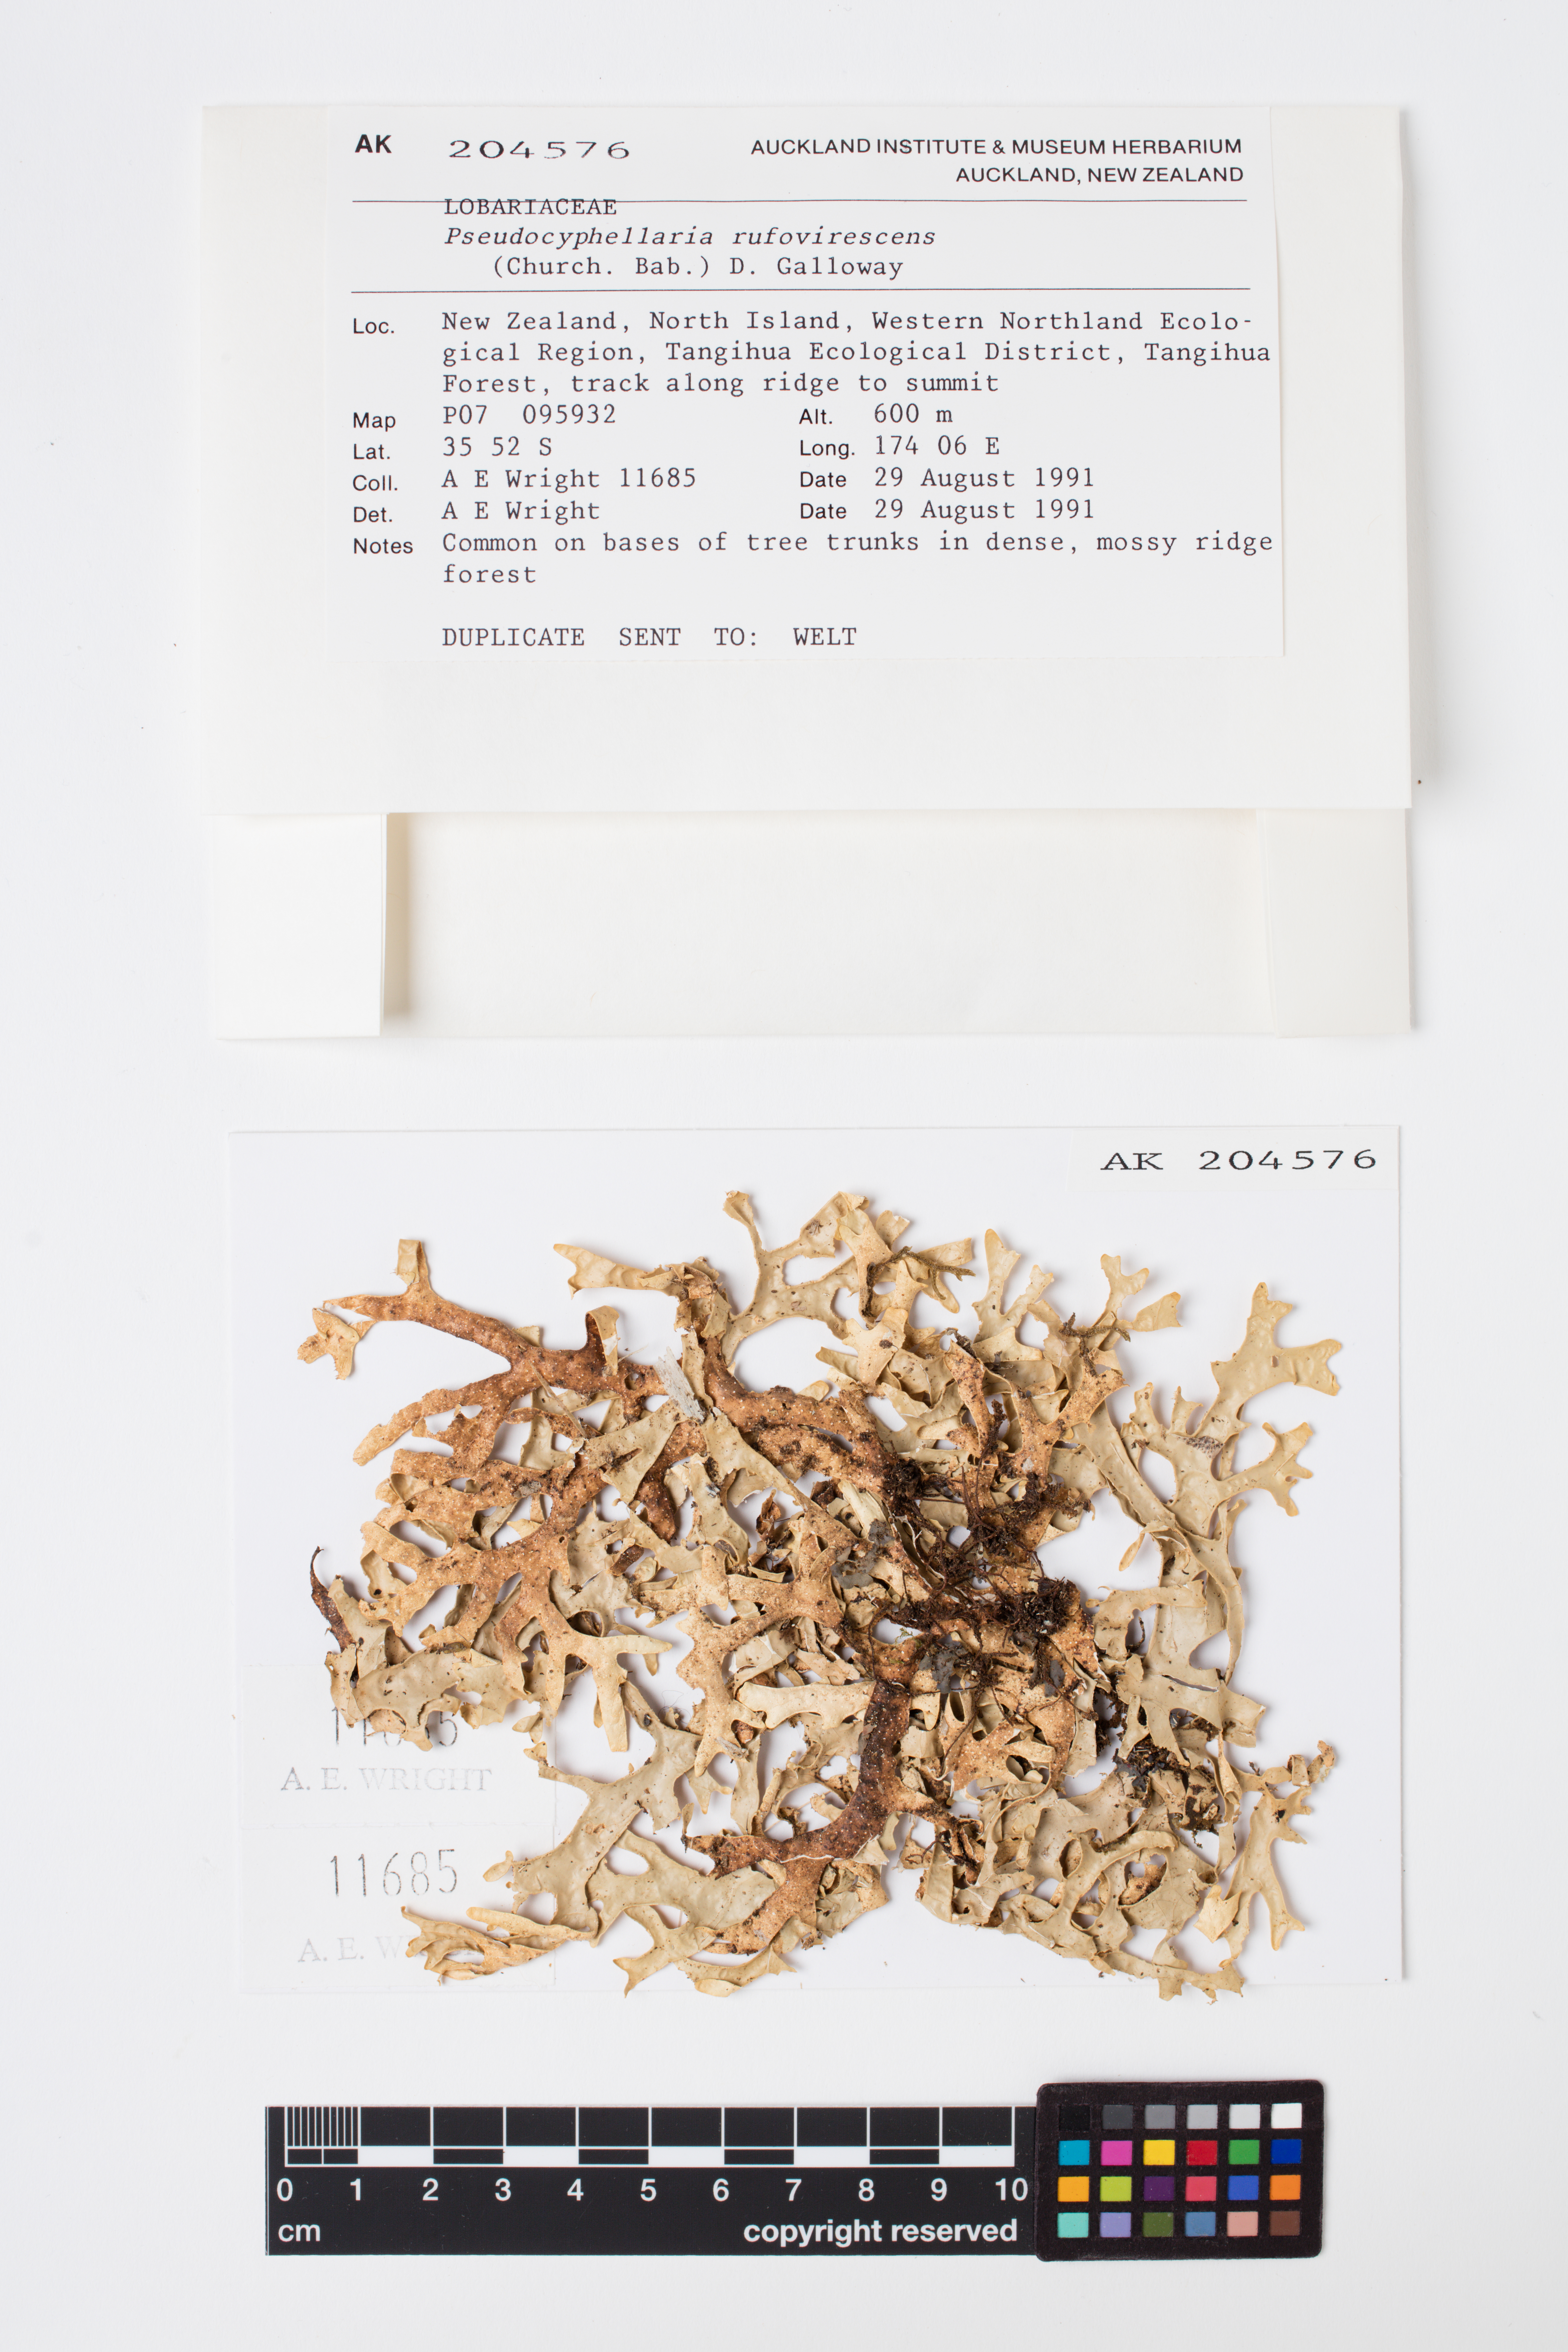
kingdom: Fungi
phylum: Ascomycota
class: Lecanoromycetes
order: Peltigerales
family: Lobariaceae
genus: Pseudocyphellaria
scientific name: Pseudocyphellaria rufovirescens
